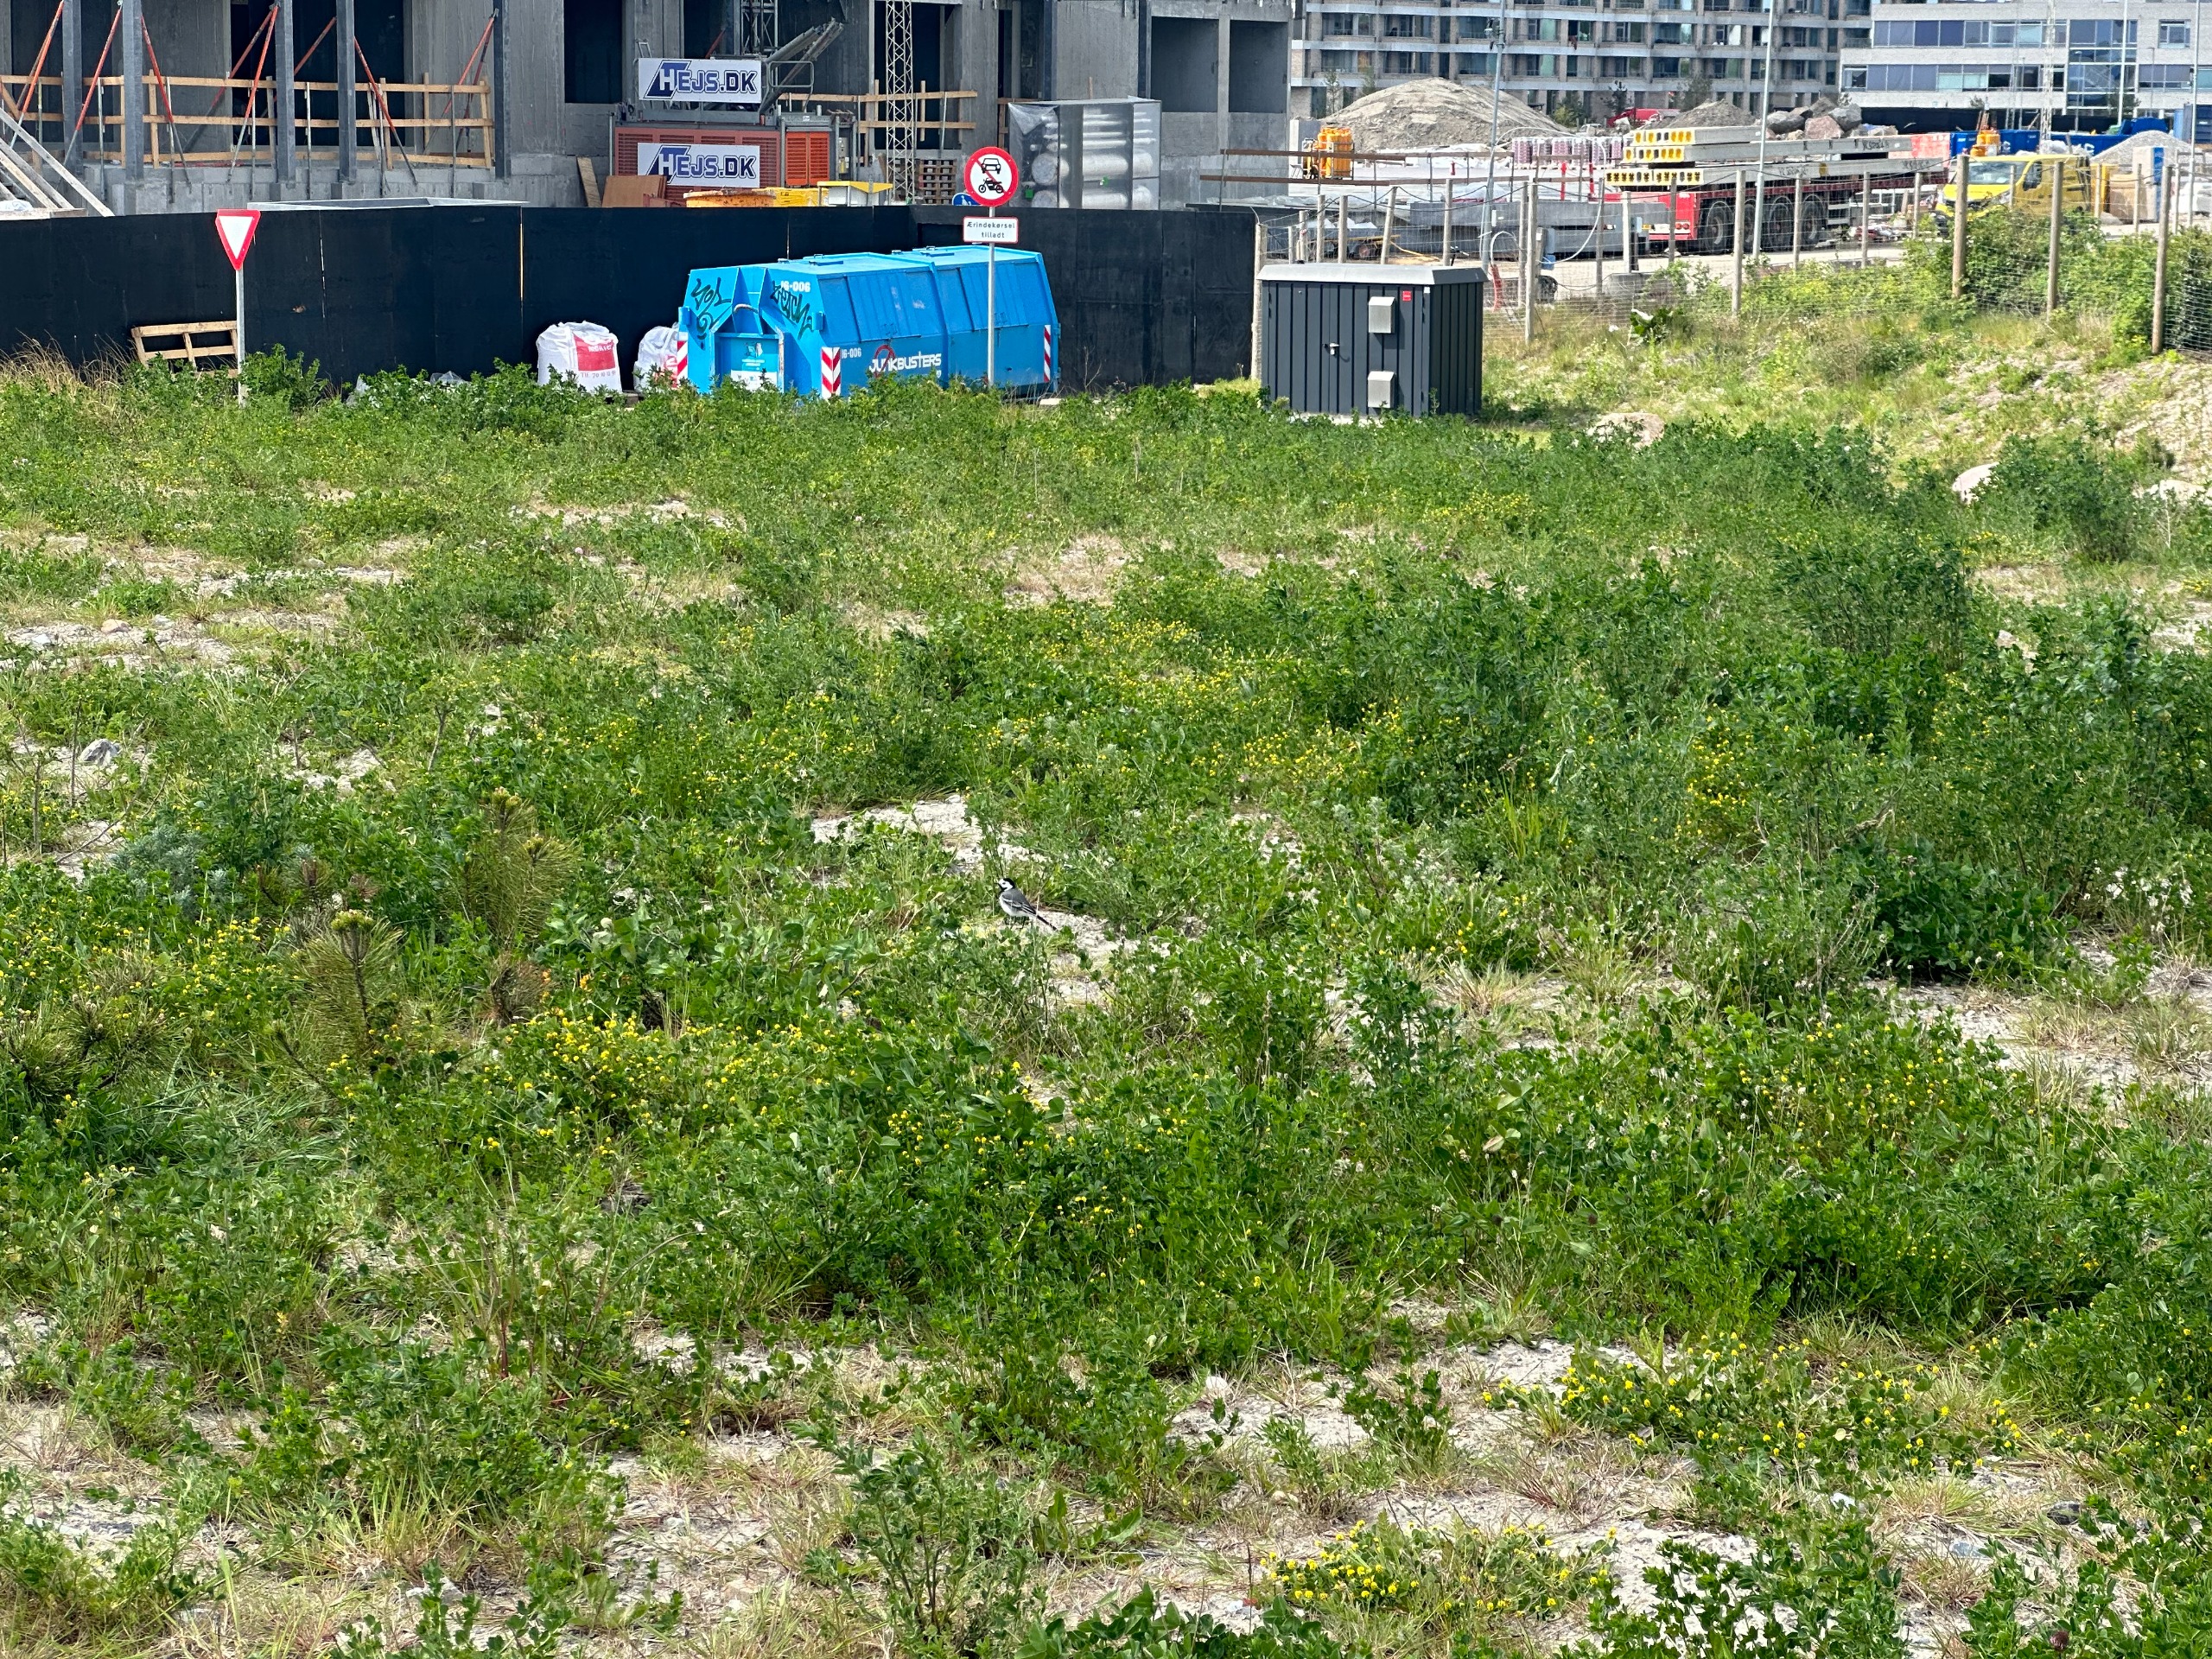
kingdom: Animalia
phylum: Chordata
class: Aves
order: Passeriformes
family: Motacillidae
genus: Motacilla
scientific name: Motacilla alba
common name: Hvid vipstjert
